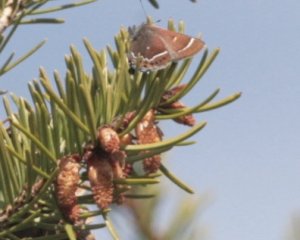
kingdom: Animalia
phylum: Arthropoda
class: Insecta
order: Lepidoptera
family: Lycaenidae
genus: Mitoura
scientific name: Mitoura spinetorum
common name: Thicket Hairstreak
